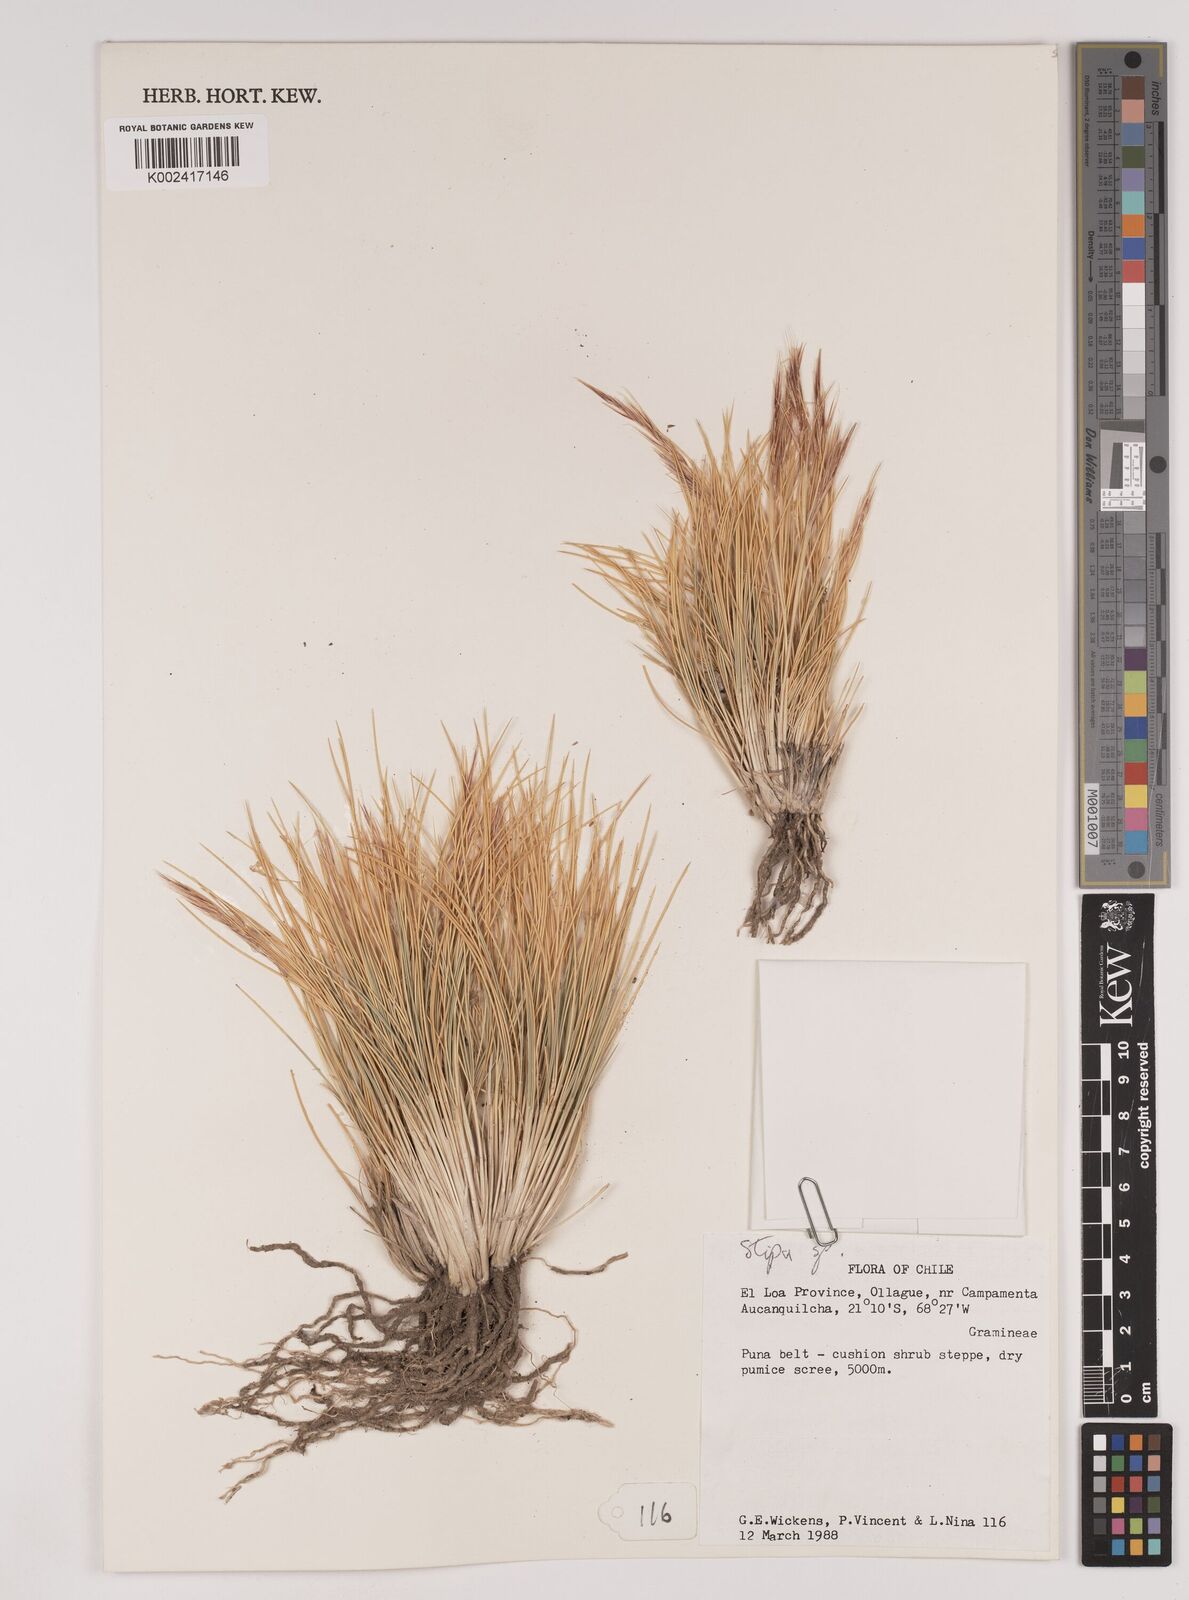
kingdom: Plantae
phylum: Tracheophyta
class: Liliopsida
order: Poales
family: Poaceae
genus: Stipa
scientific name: Stipa
